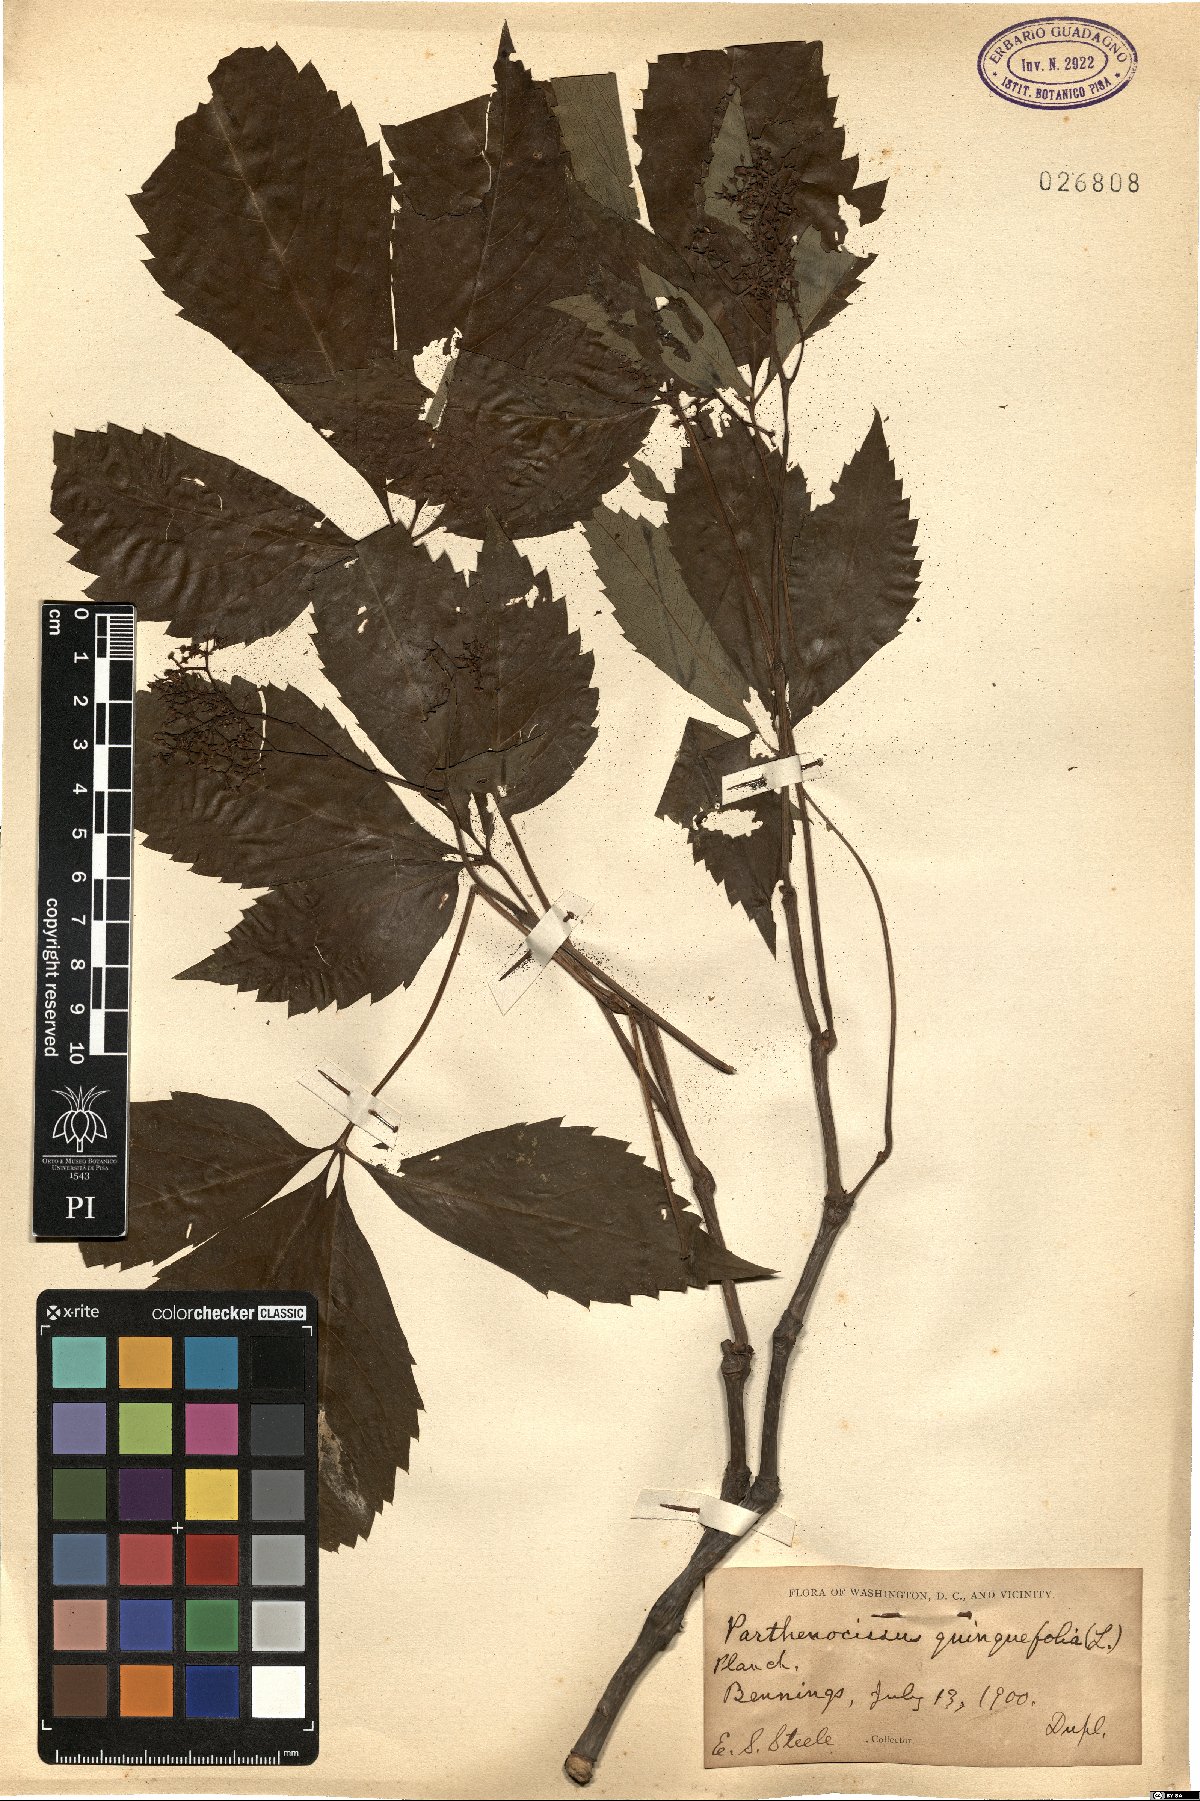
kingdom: Plantae
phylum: Tracheophyta
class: Magnoliopsida
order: Vitales
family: Vitaceae
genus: Parthenocissus
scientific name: Parthenocissus quinquefolia
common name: Virginia-creeper
